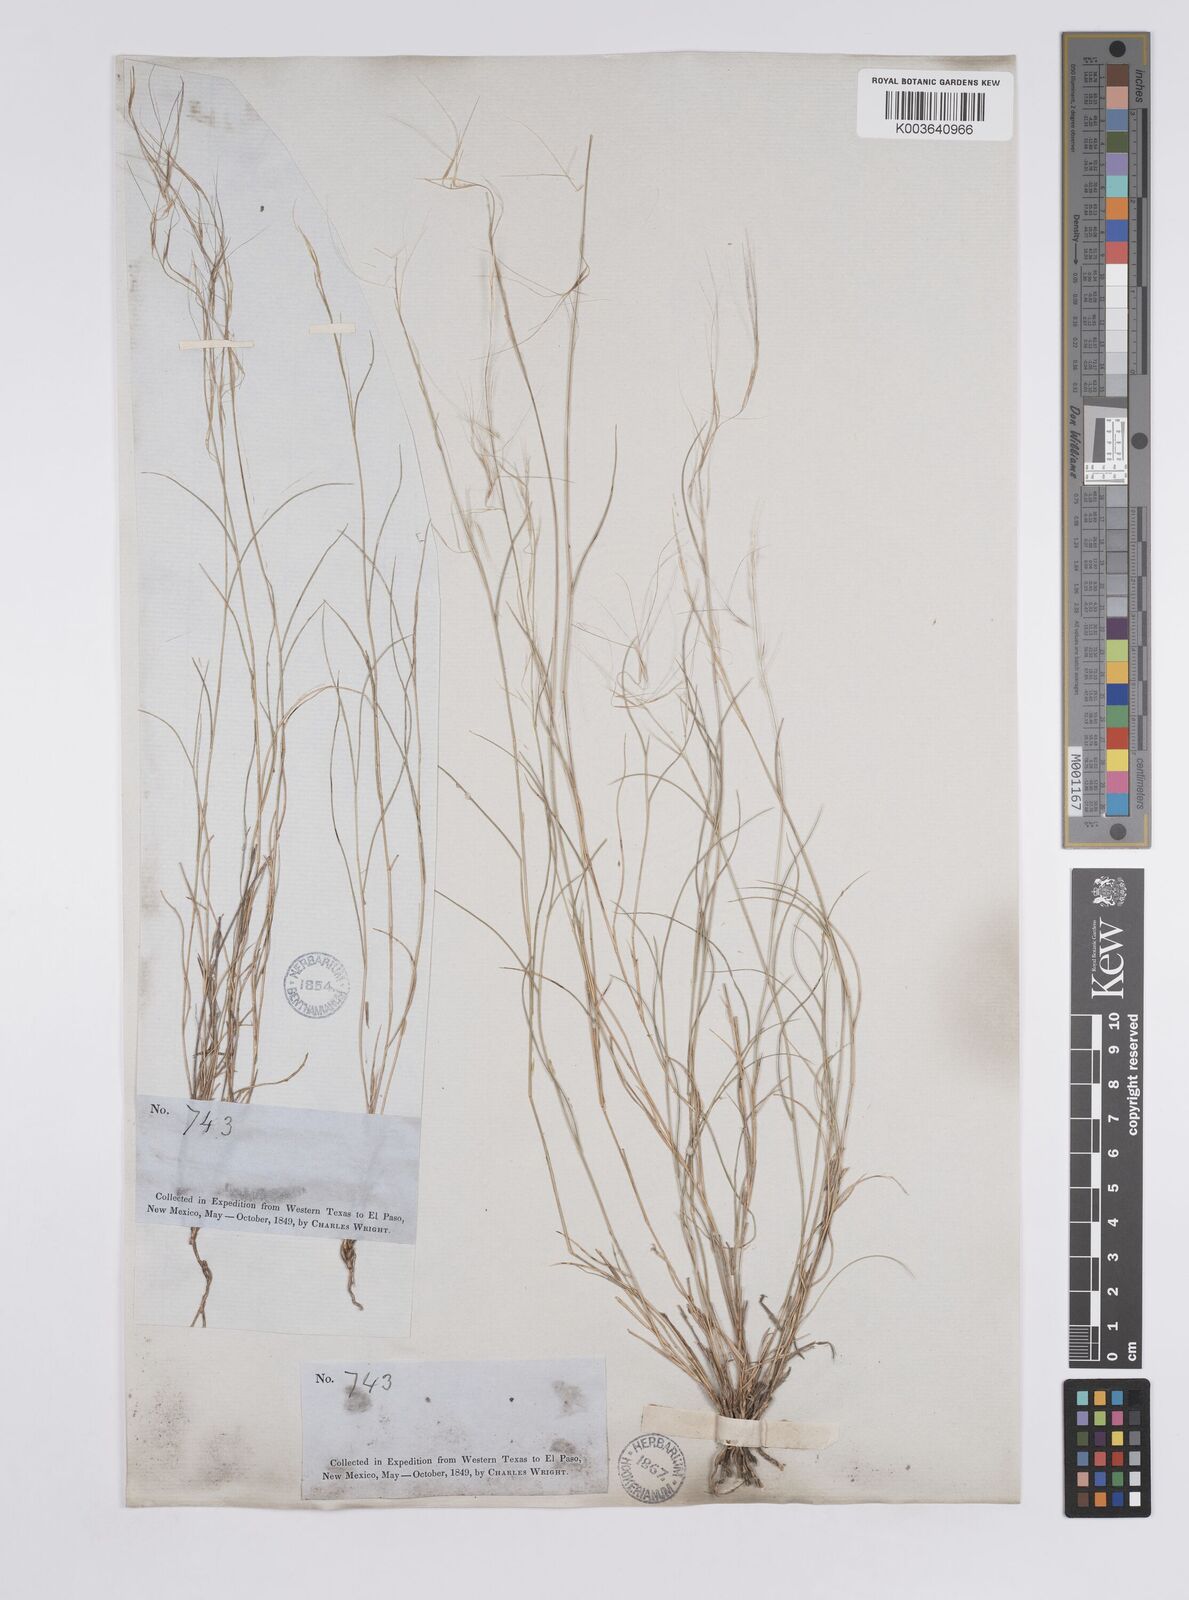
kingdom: Plantae
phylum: Tracheophyta
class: Liliopsida
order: Poales
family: Poaceae
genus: Aristida
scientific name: Aristida purpurea
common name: Purple threeawn
